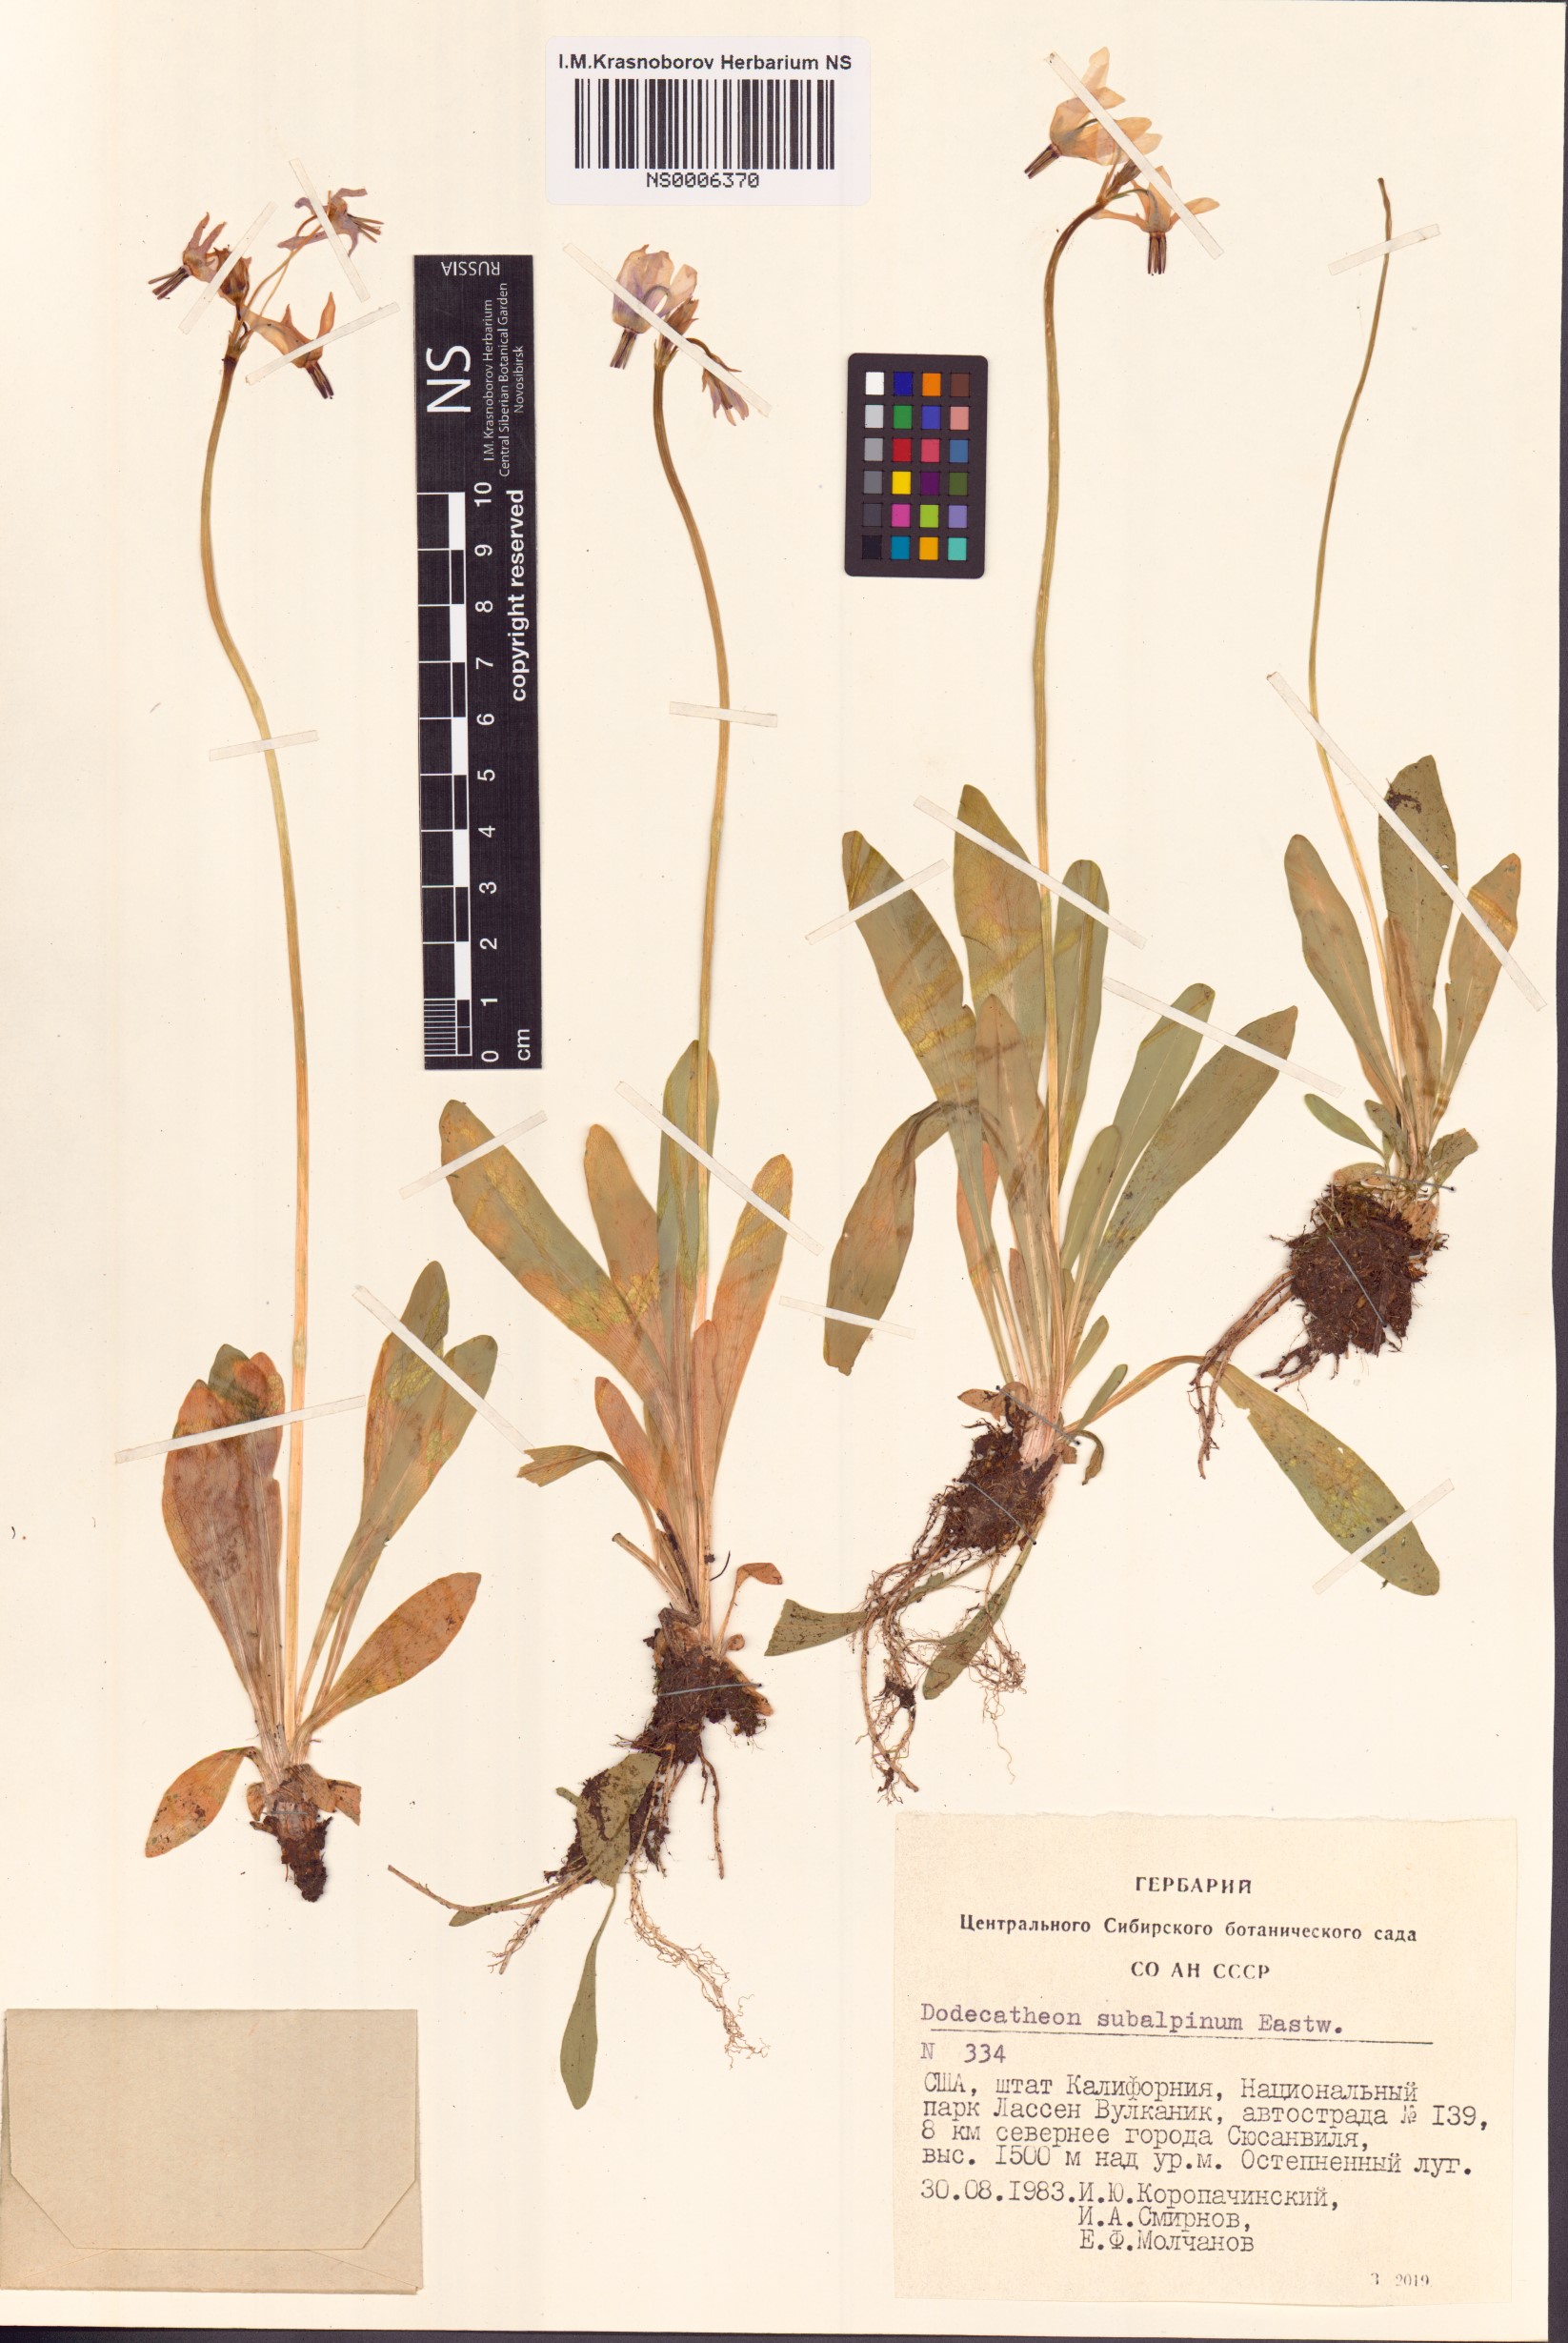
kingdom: Plantae
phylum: Tracheophyta
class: Magnoliopsida
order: Ericales
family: Primulaceae
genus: Dodecatheon
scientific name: Dodecatheon subalpinum
